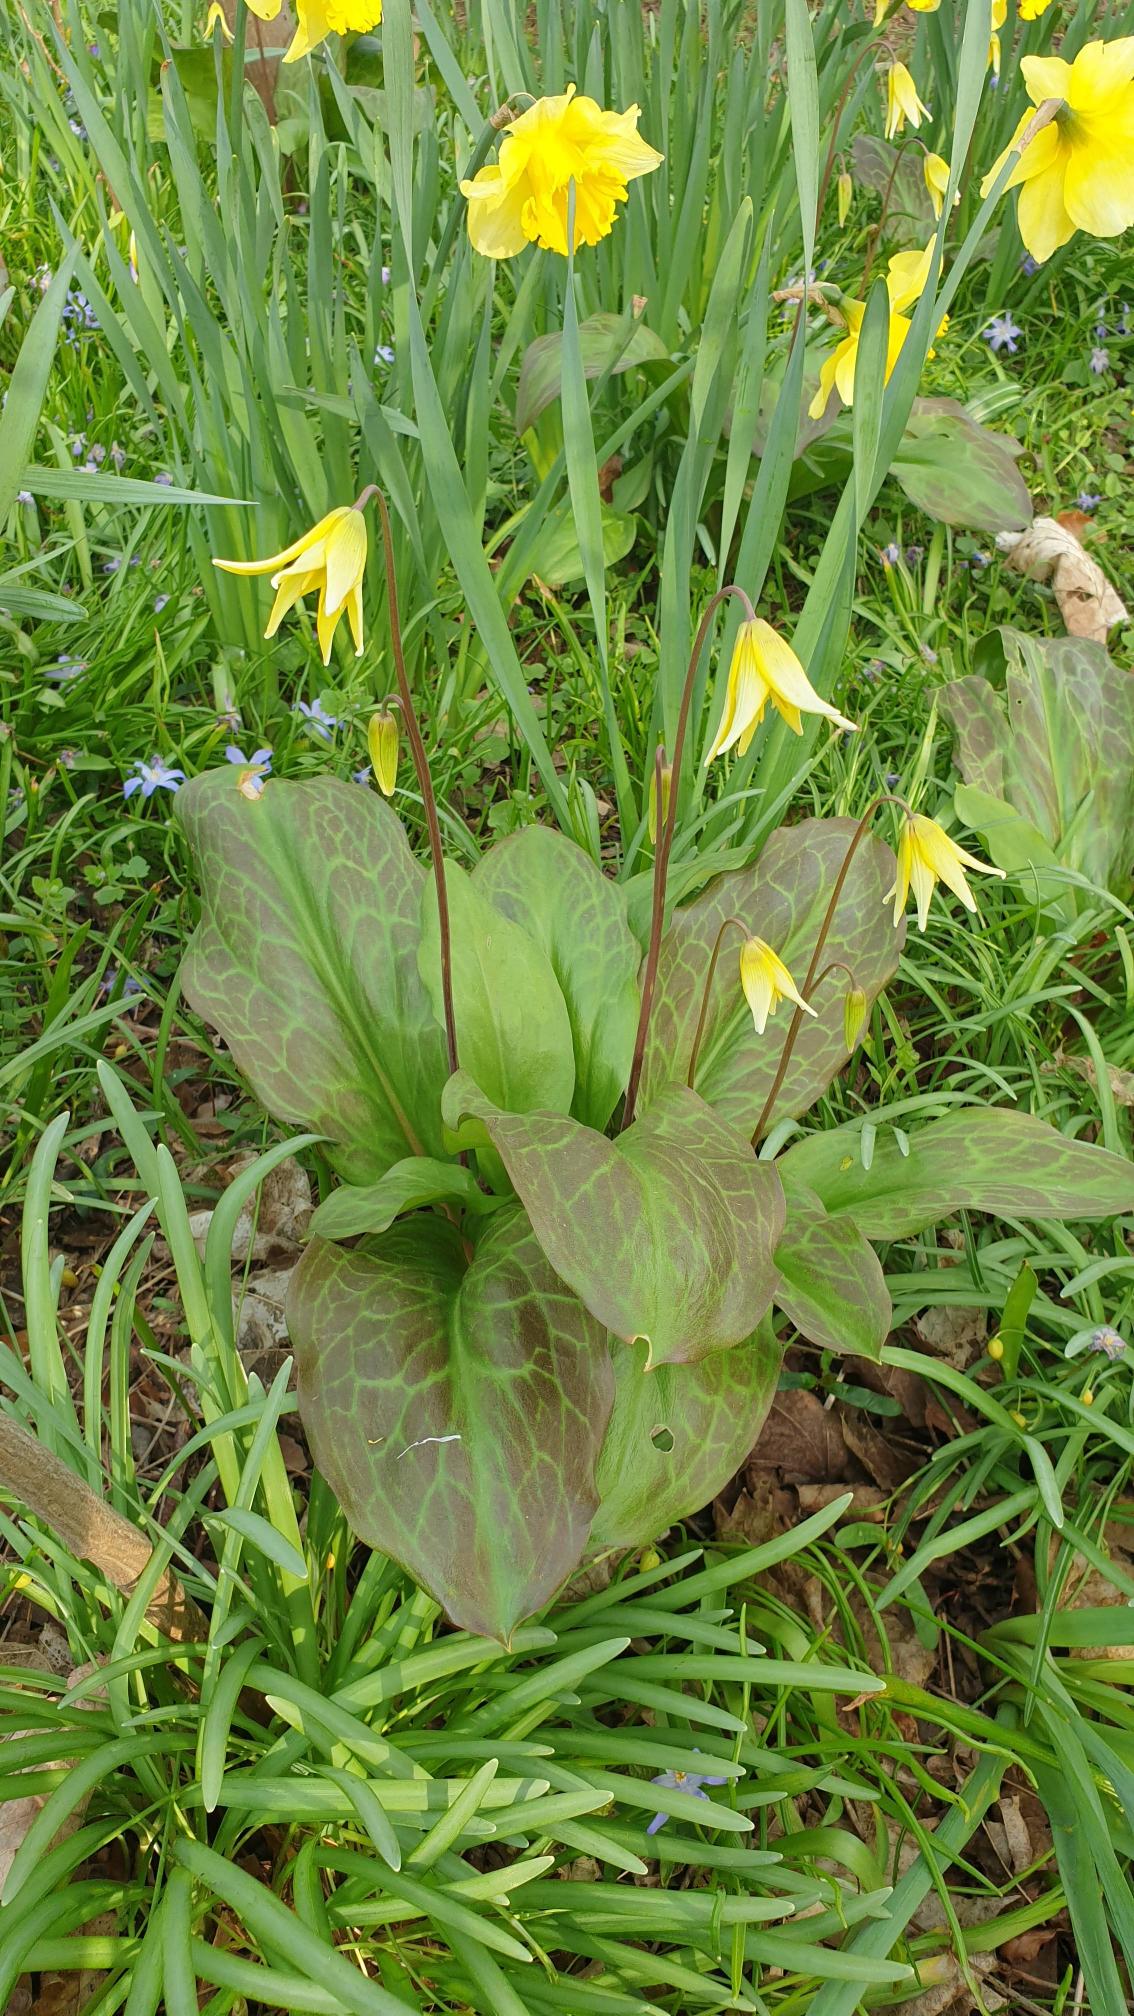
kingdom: Plantae
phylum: Tracheophyta
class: Liliopsida
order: Liliales
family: Liliaceae
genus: Erythronium
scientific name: Erythronium
